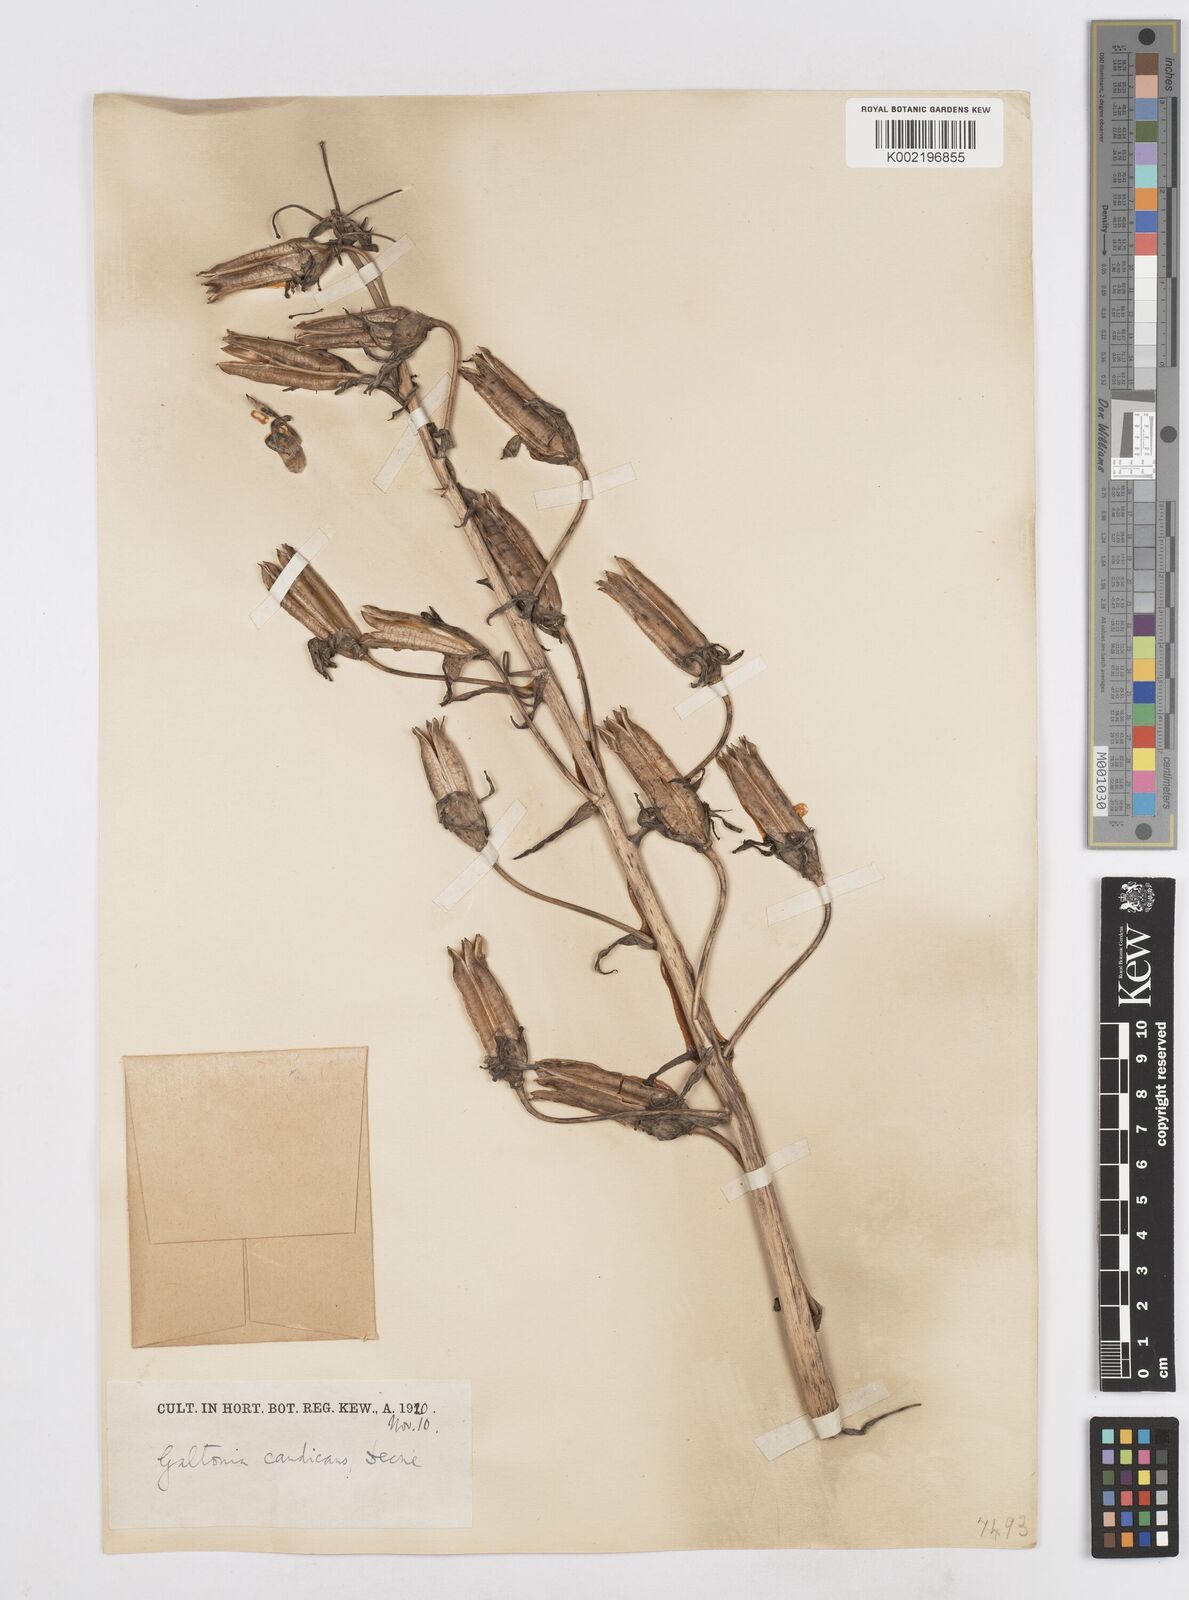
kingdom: Plantae
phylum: Tracheophyta
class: Liliopsida
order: Asparagales
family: Asparagaceae
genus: Ornithogalum
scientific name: Ornithogalum candicans
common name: Summer-hyacinth
